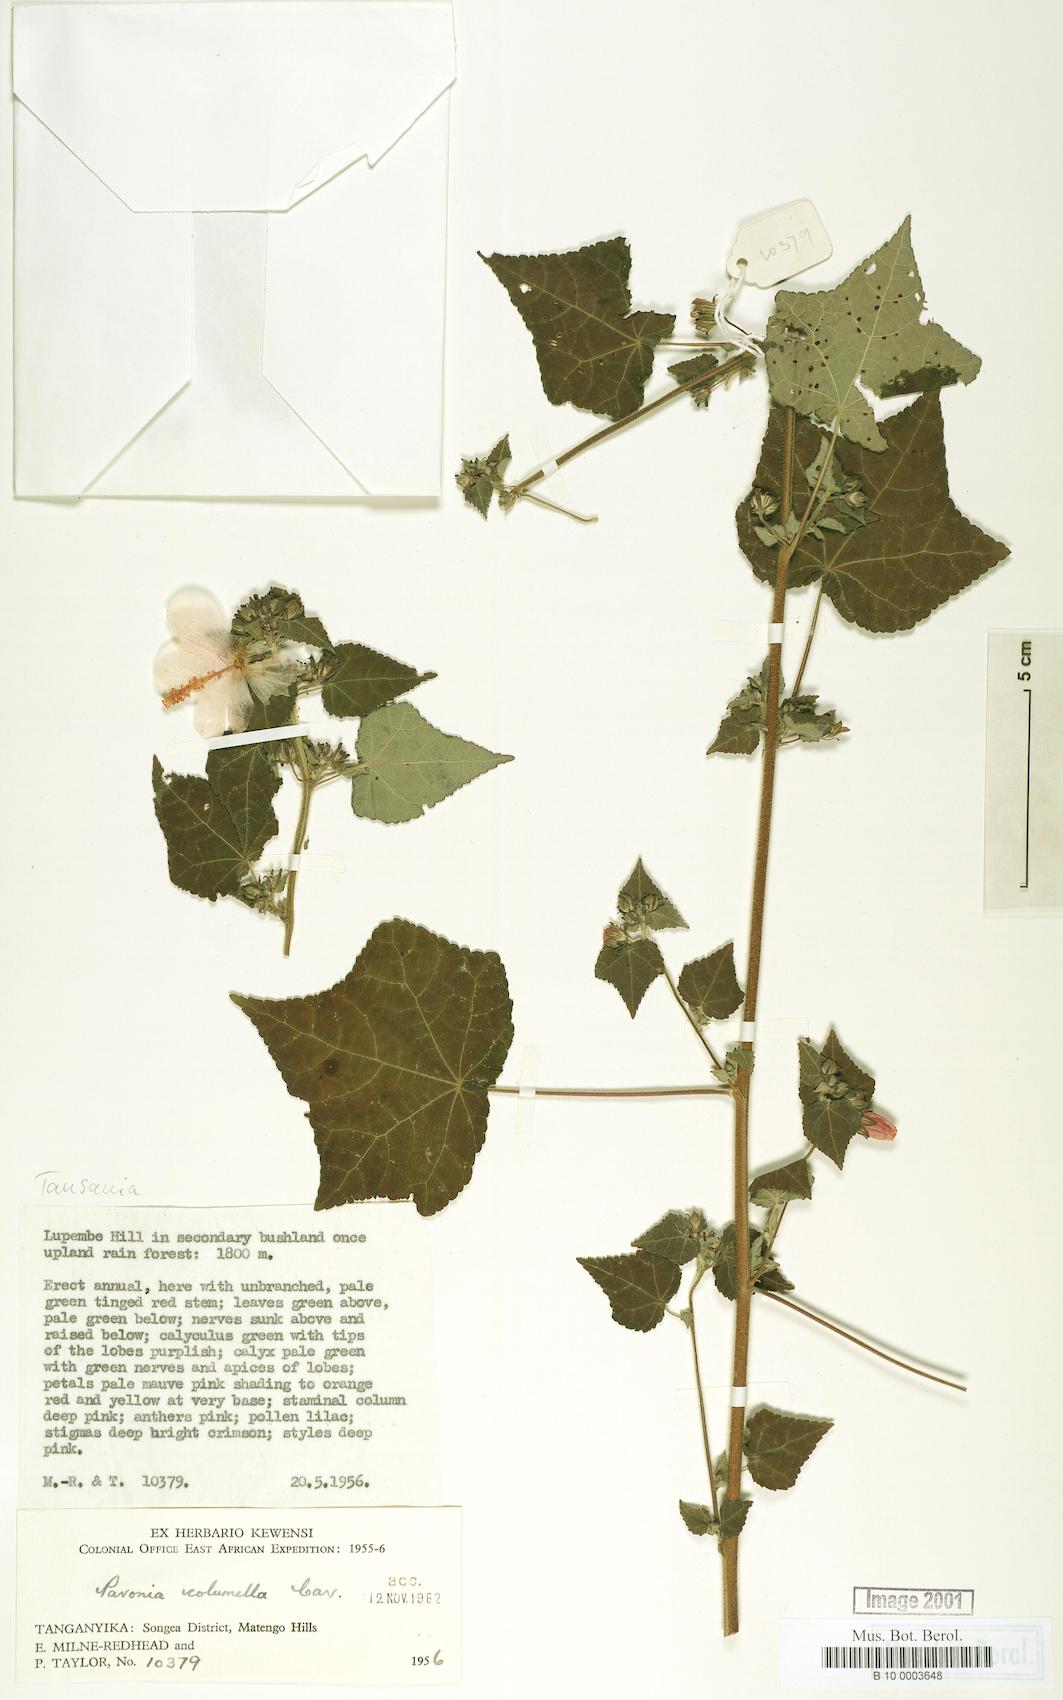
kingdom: Plantae
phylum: Tracheophyta
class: Magnoliopsida
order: Malvales
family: Malvaceae
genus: Pavonia
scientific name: Pavonia columella
